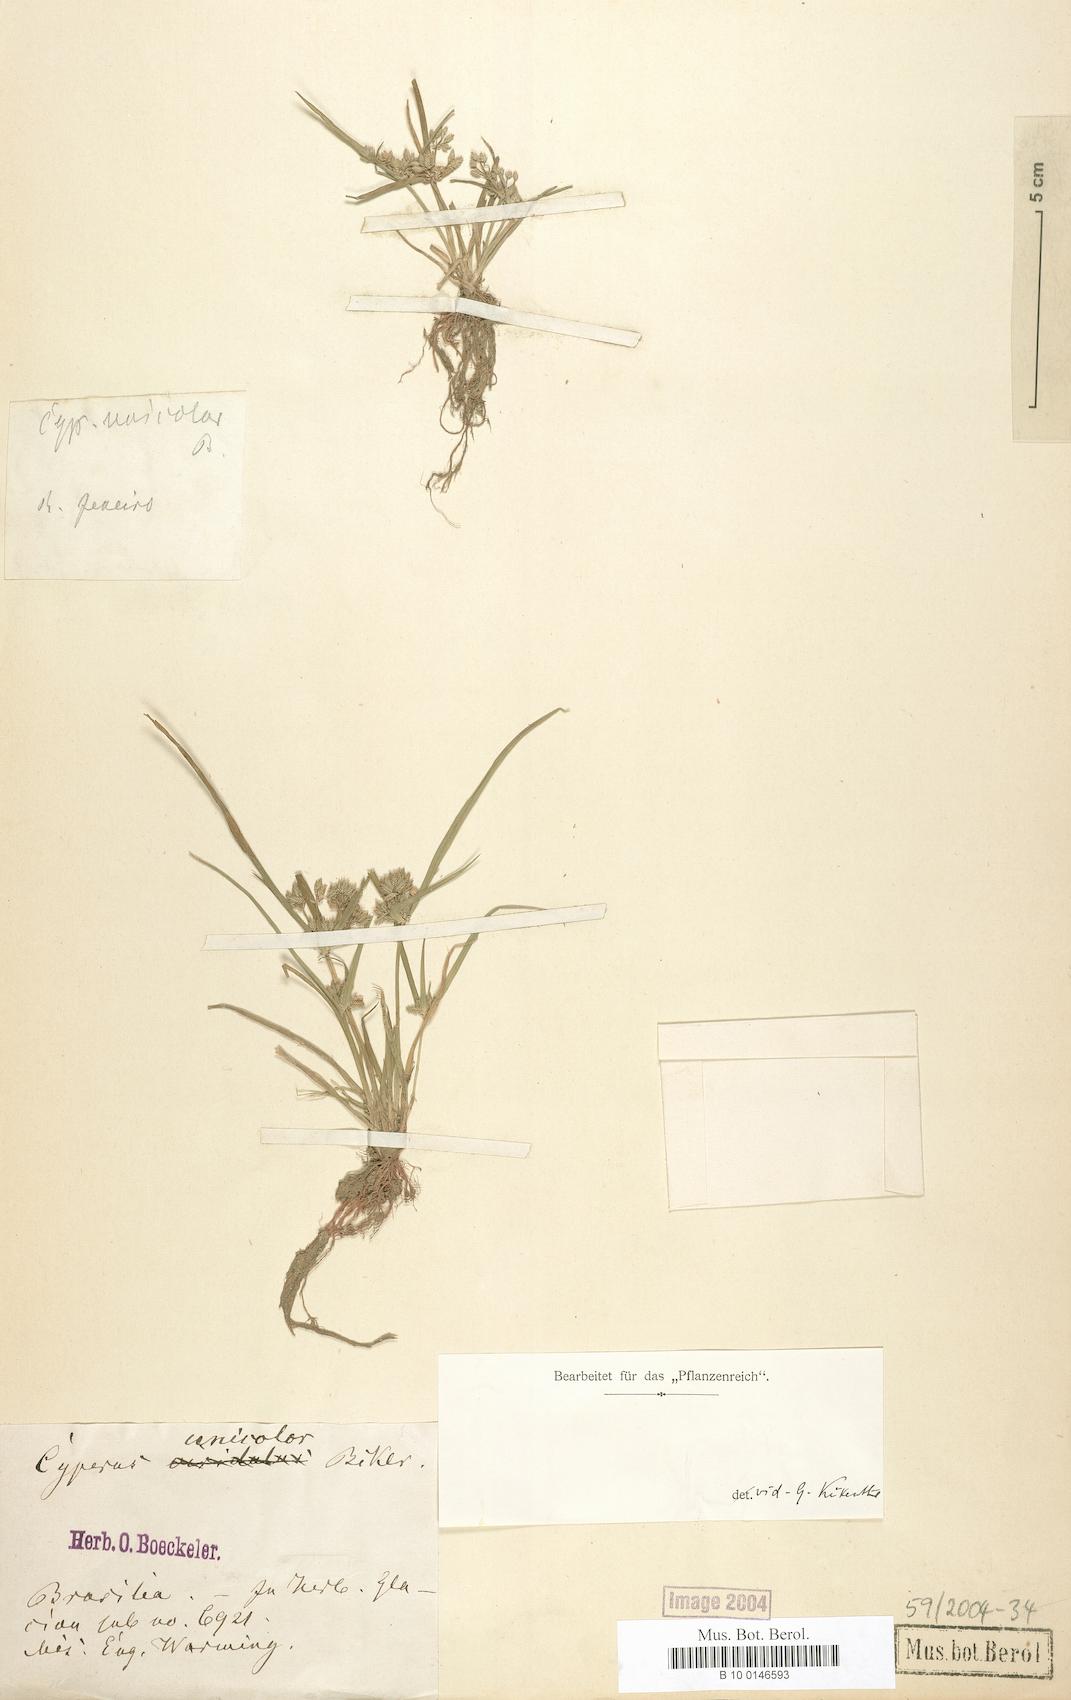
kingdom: Plantae
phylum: Tracheophyta
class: Liliopsida
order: Poales
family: Cyperaceae
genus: Cyperus
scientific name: Cyperus unicolor
